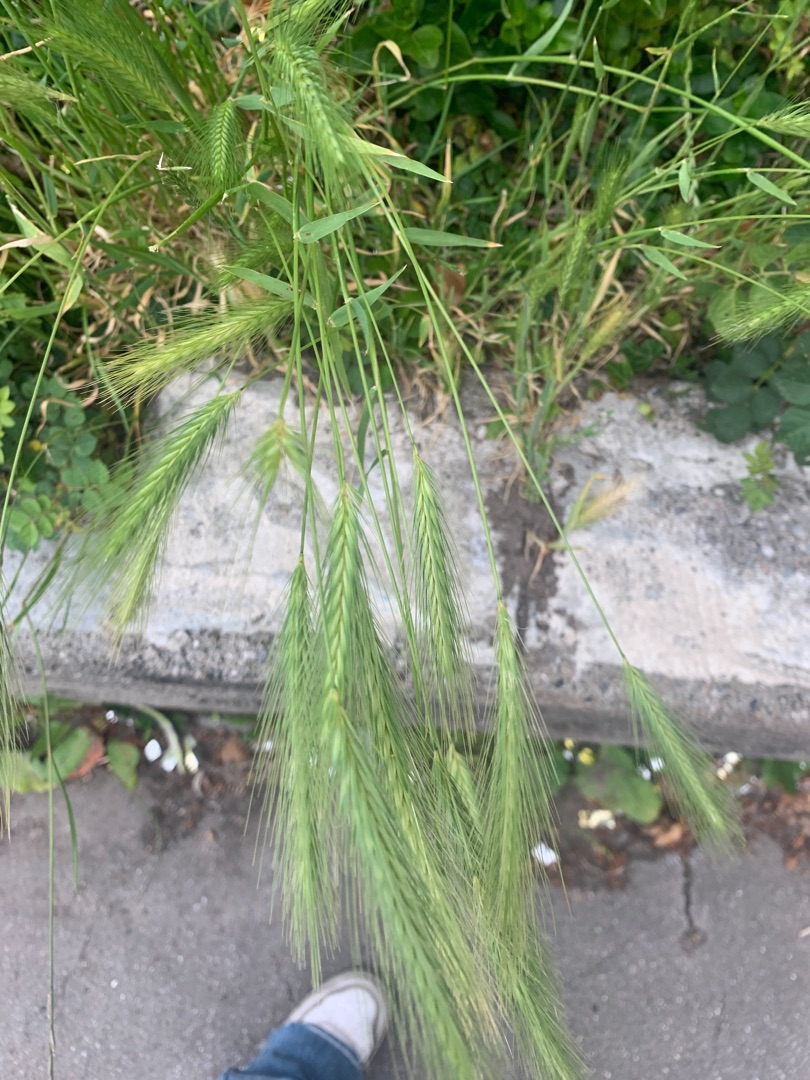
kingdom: Plantae
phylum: Tracheophyta
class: Liliopsida
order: Poales
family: Poaceae
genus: Bromus
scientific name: Bromus sterilis
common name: Gold hejre
